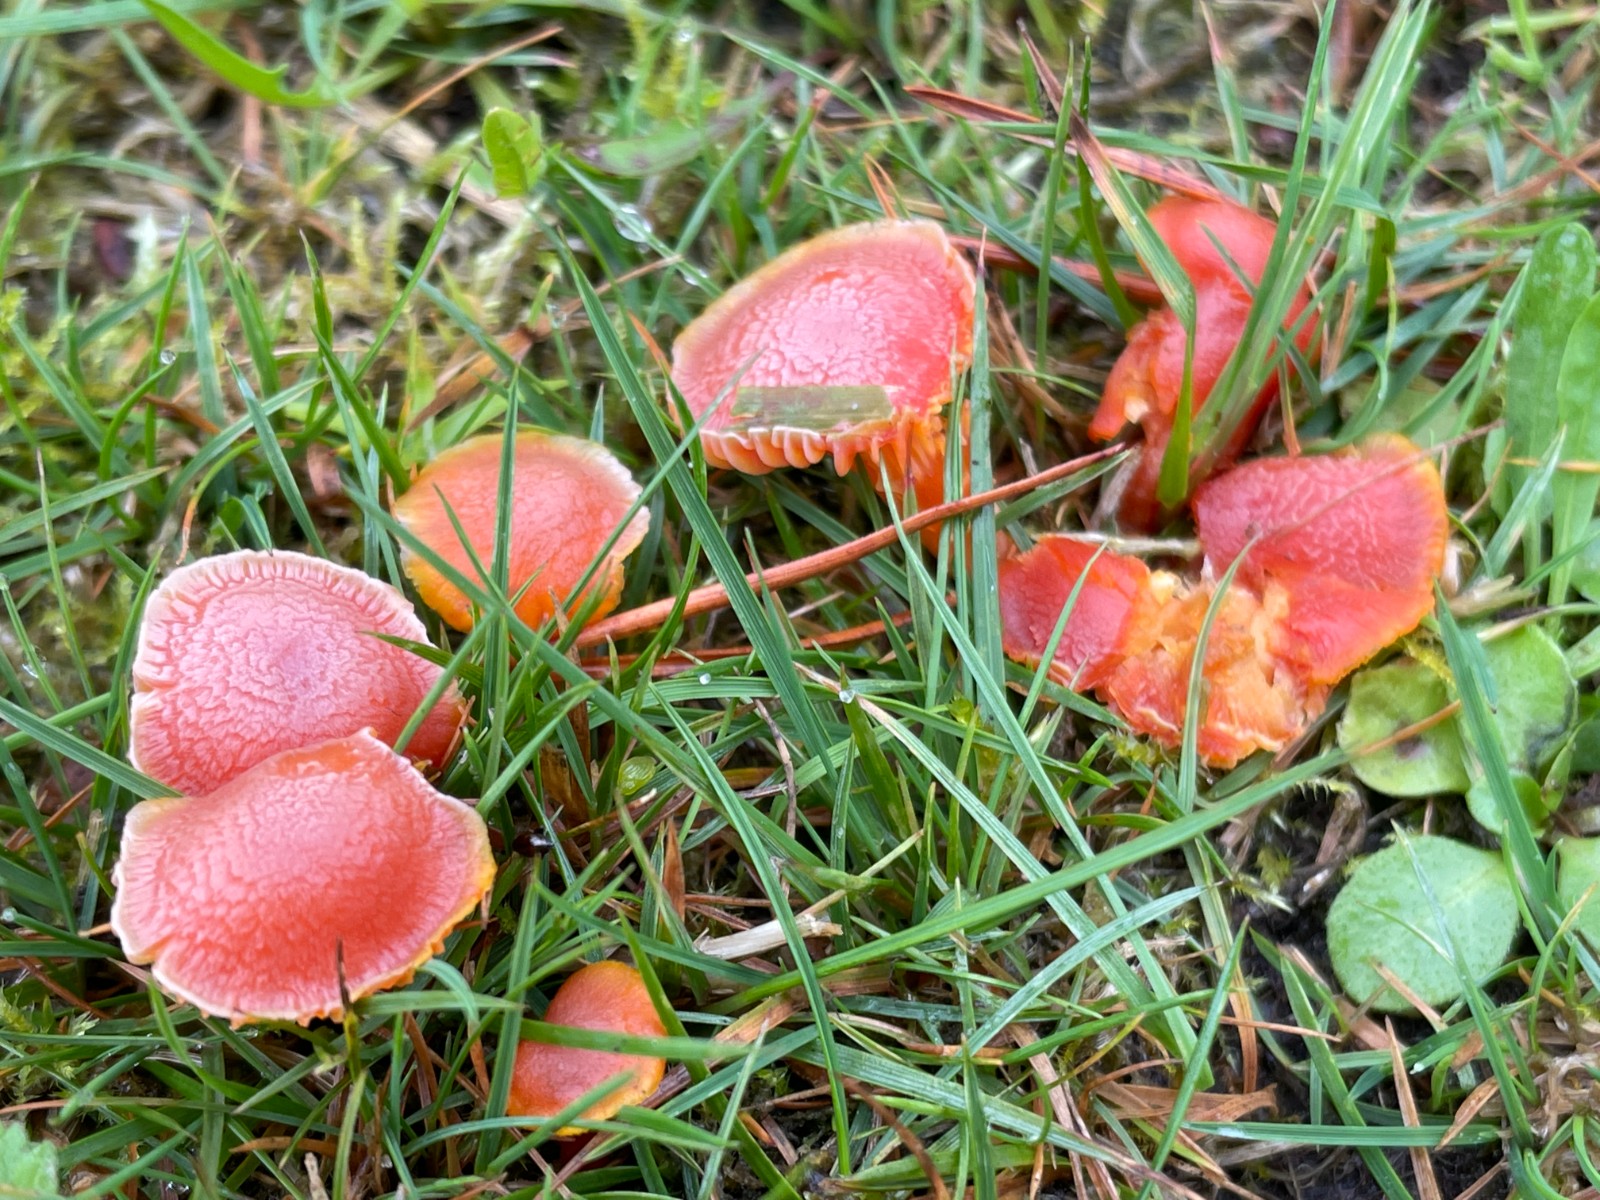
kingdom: Fungi
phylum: Basidiomycota
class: Agaricomycetes
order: Agaricales
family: Hygrophoraceae
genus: Hygrocybe
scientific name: Hygrocybe miniata
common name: mønje-vokshat
